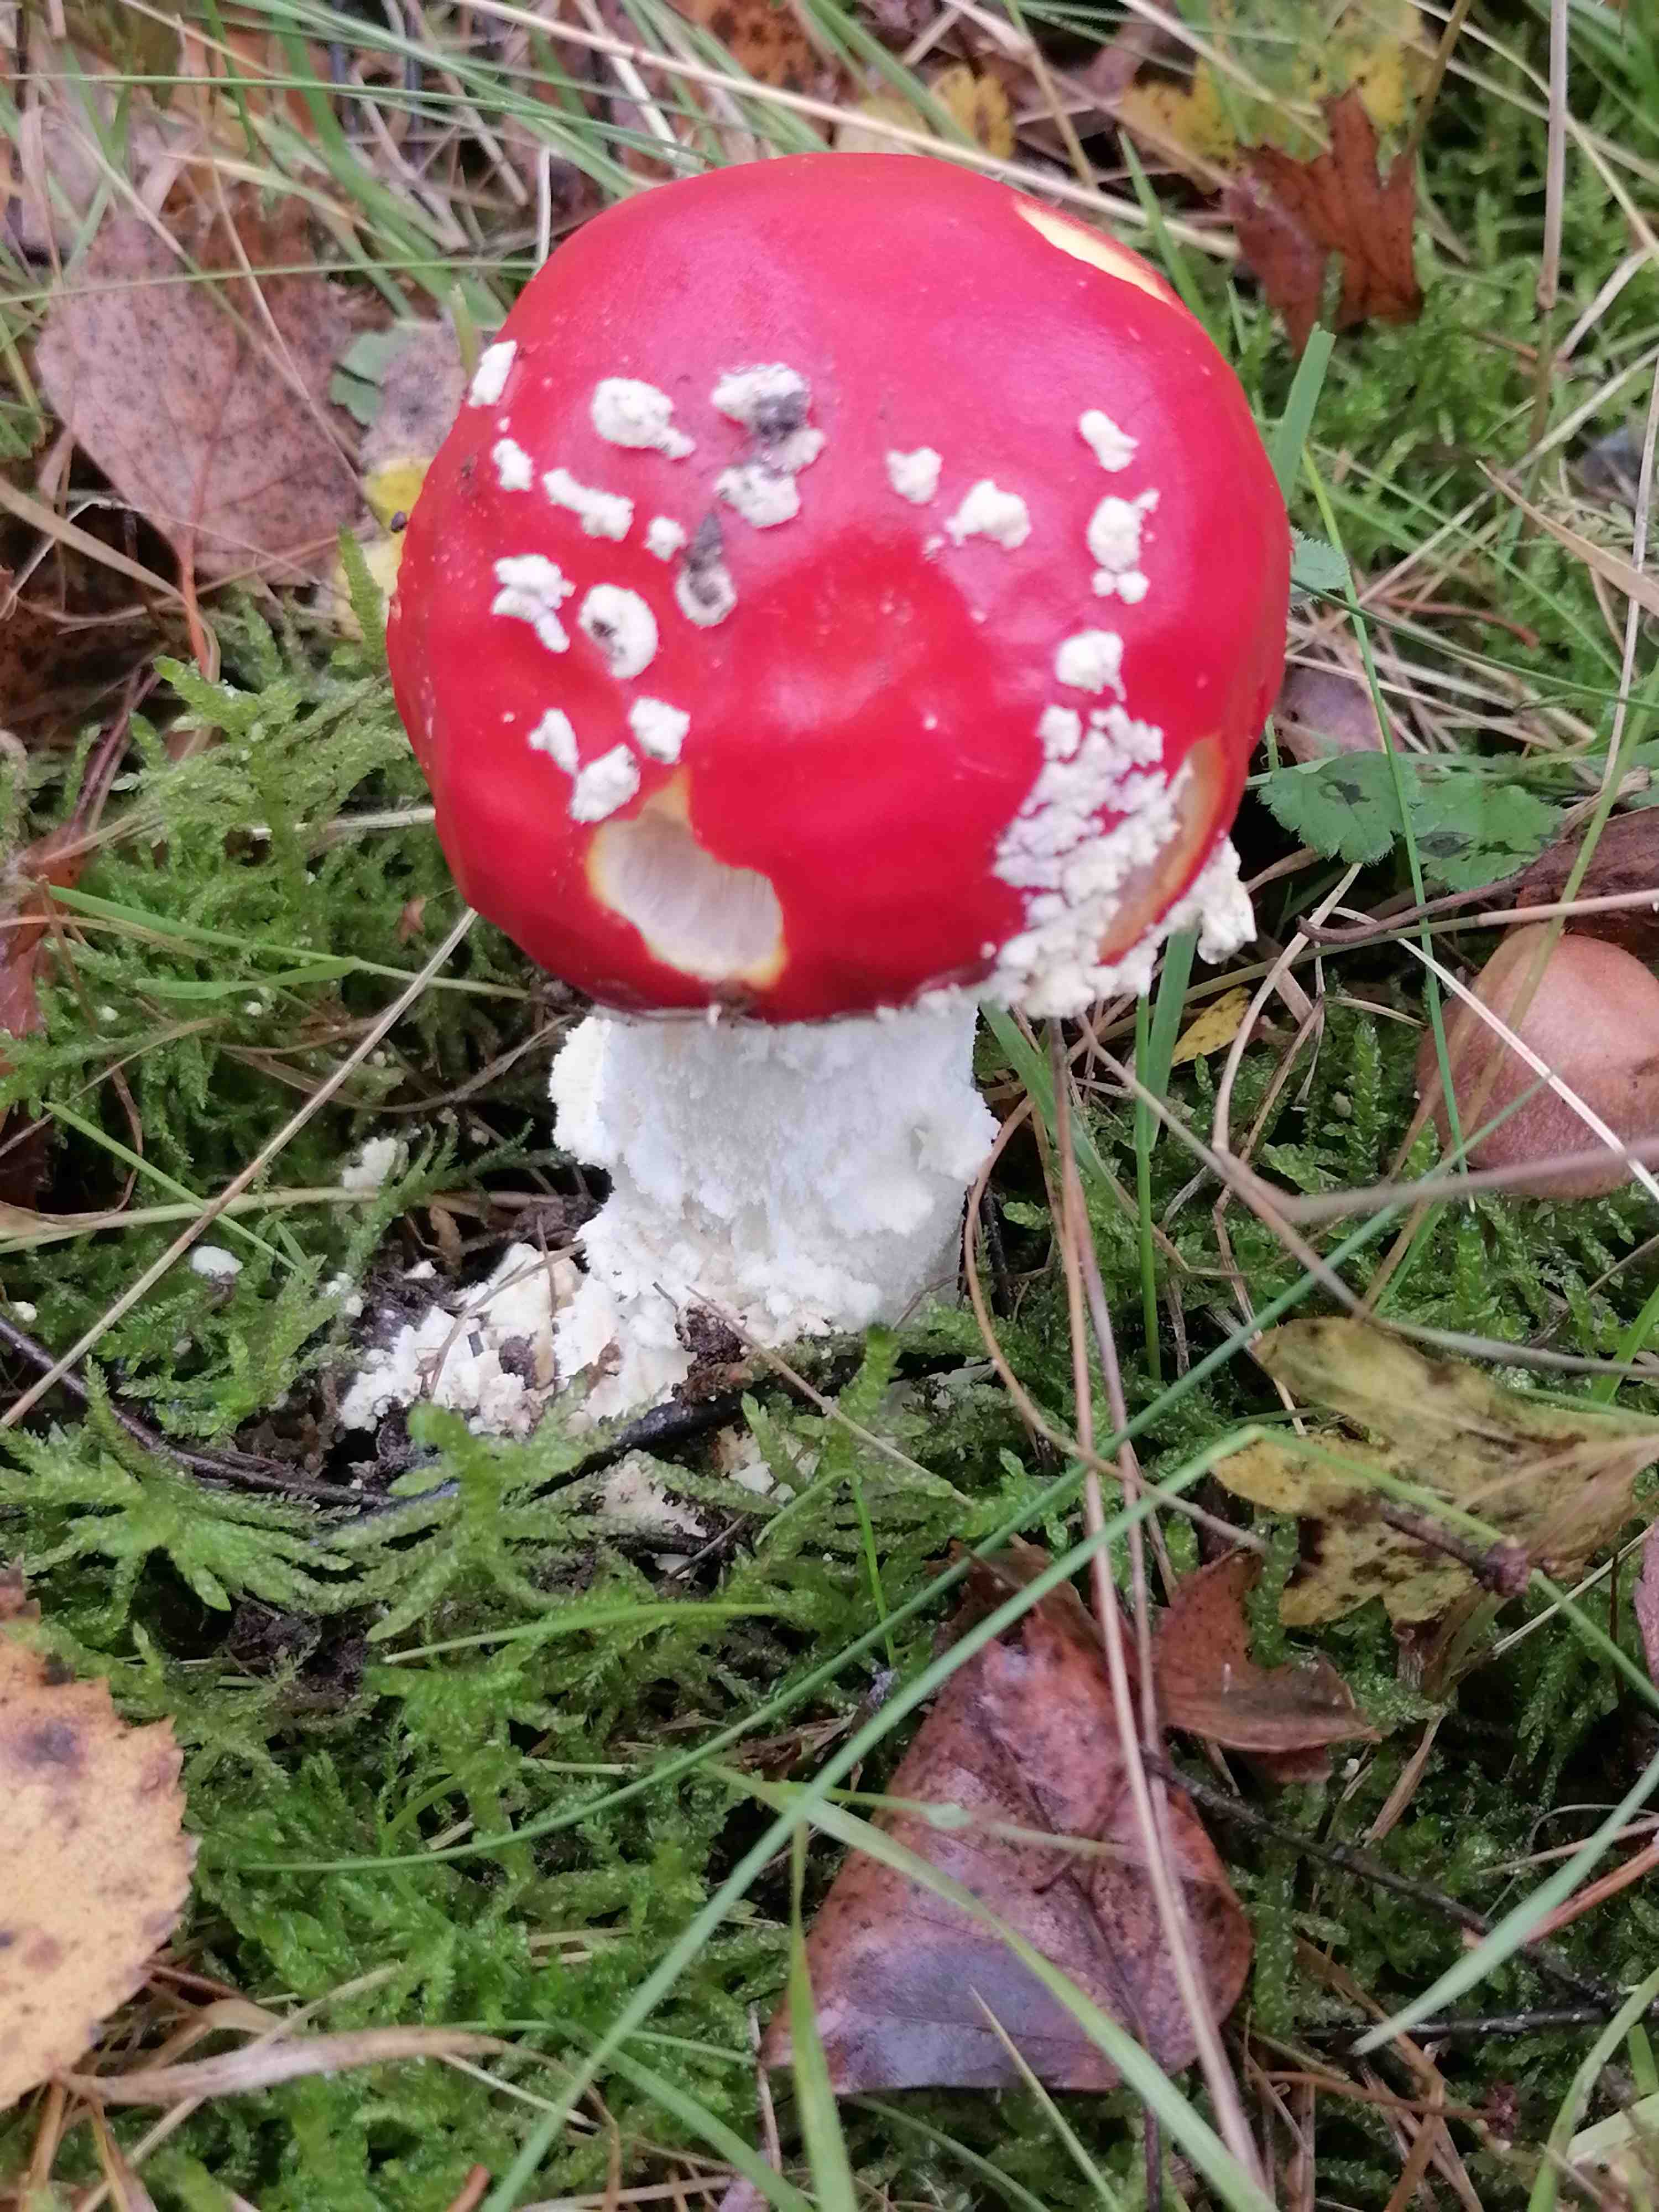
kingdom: Fungi
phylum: Basidiomycota
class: Agaricomycetes
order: Agaricales
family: Amanitaceae
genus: Amanita
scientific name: Amanita muscaria
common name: rød fluesvamp
